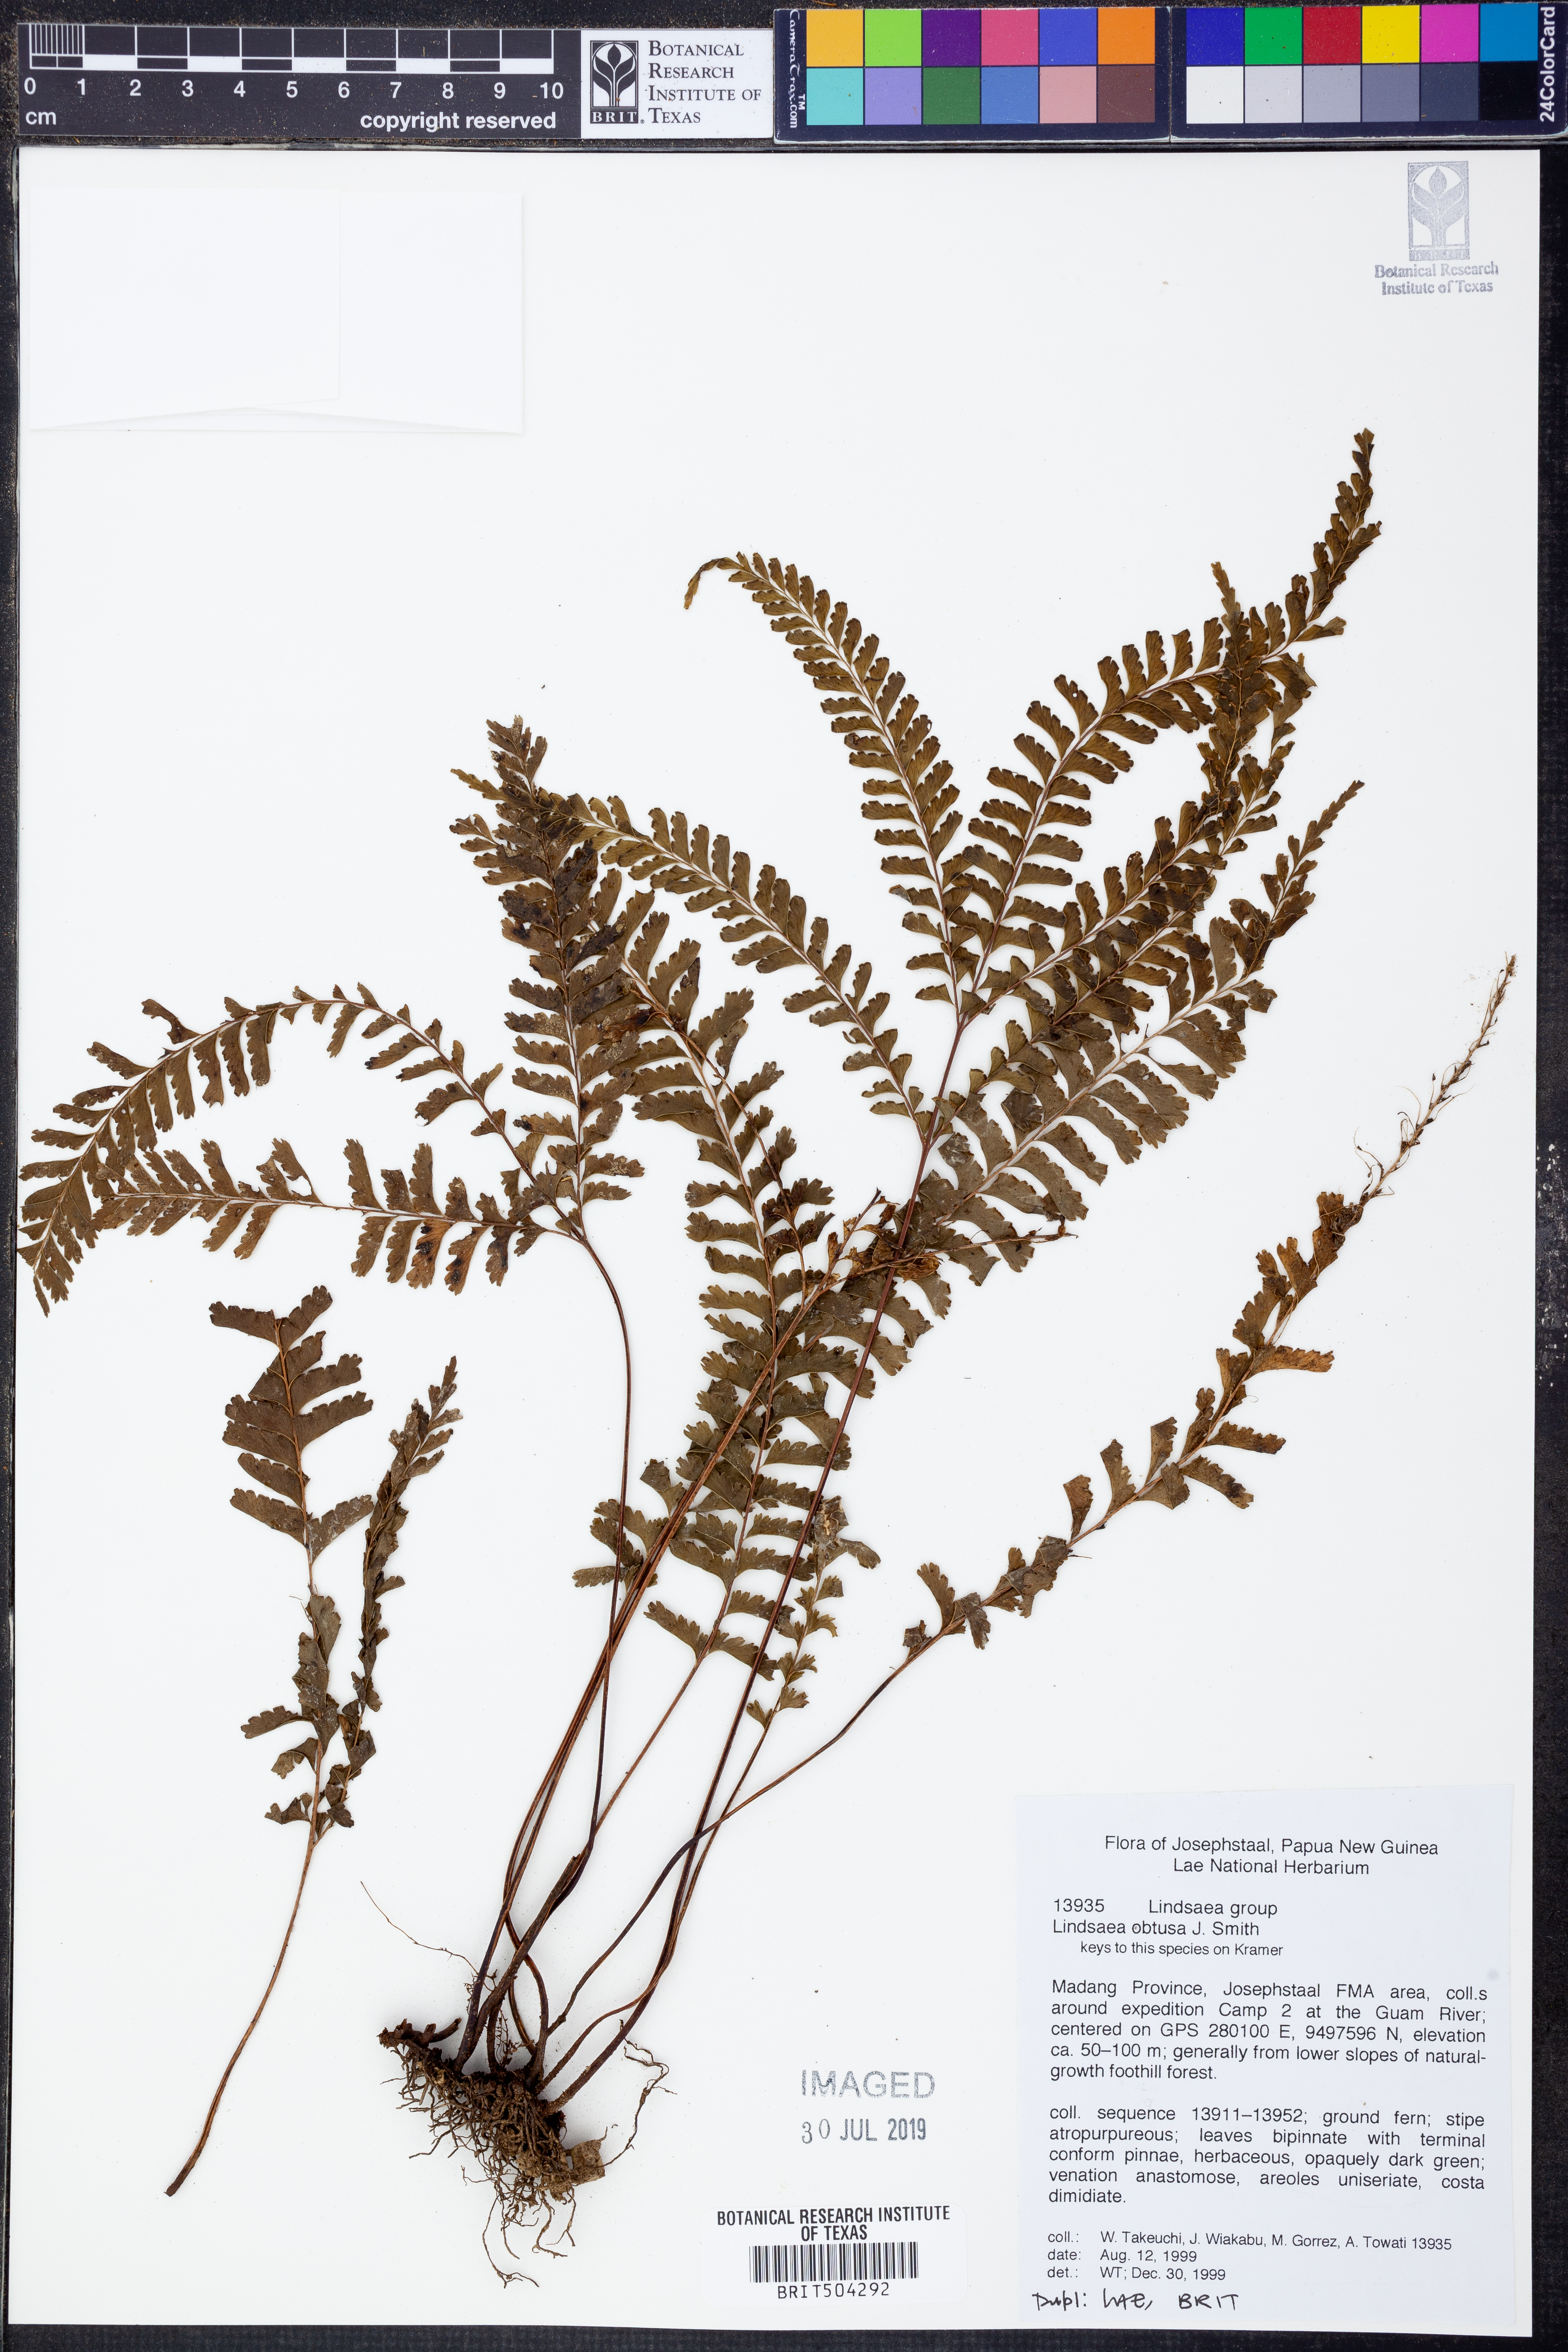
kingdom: Plantae
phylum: Tracheophyta
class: Polypodiopsida
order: Polypodiales
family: Lindsaeaceae
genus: Lindsaea
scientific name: Lindsaea obtusa
